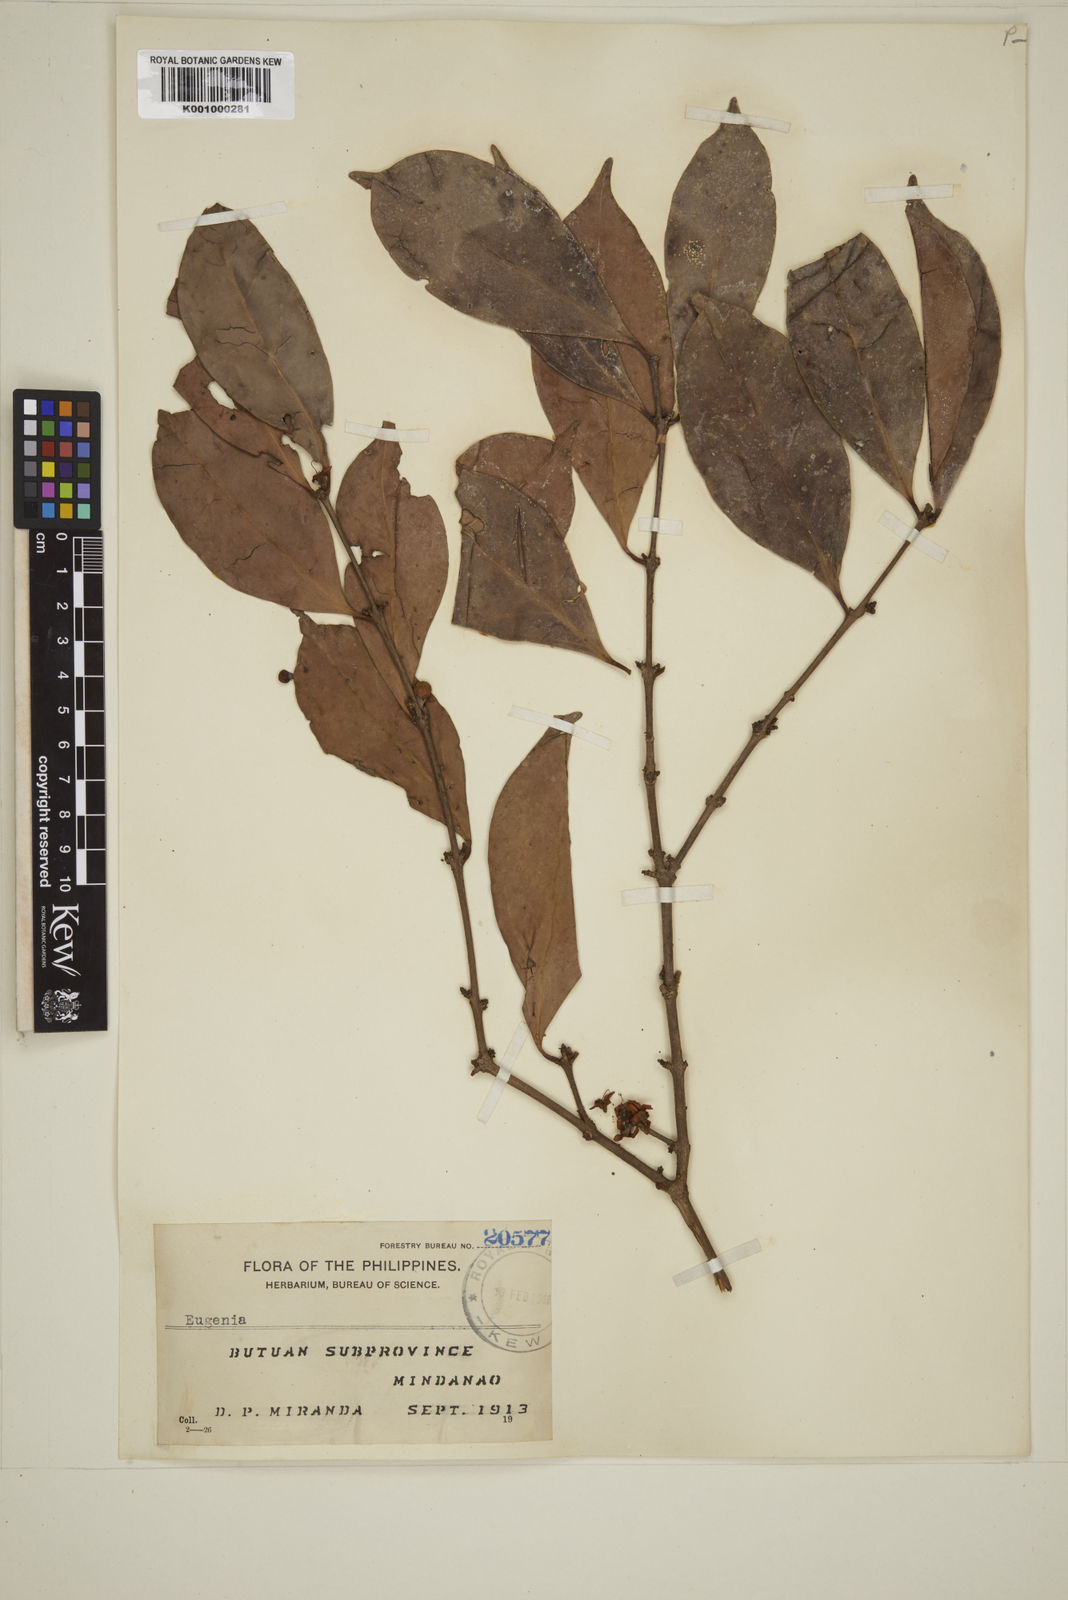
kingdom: Plantae
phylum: Tracheophyta
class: Magnoliopsida
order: Myrtales
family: Myrtaceae
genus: Eugenia
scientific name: Eugenia aherniana
